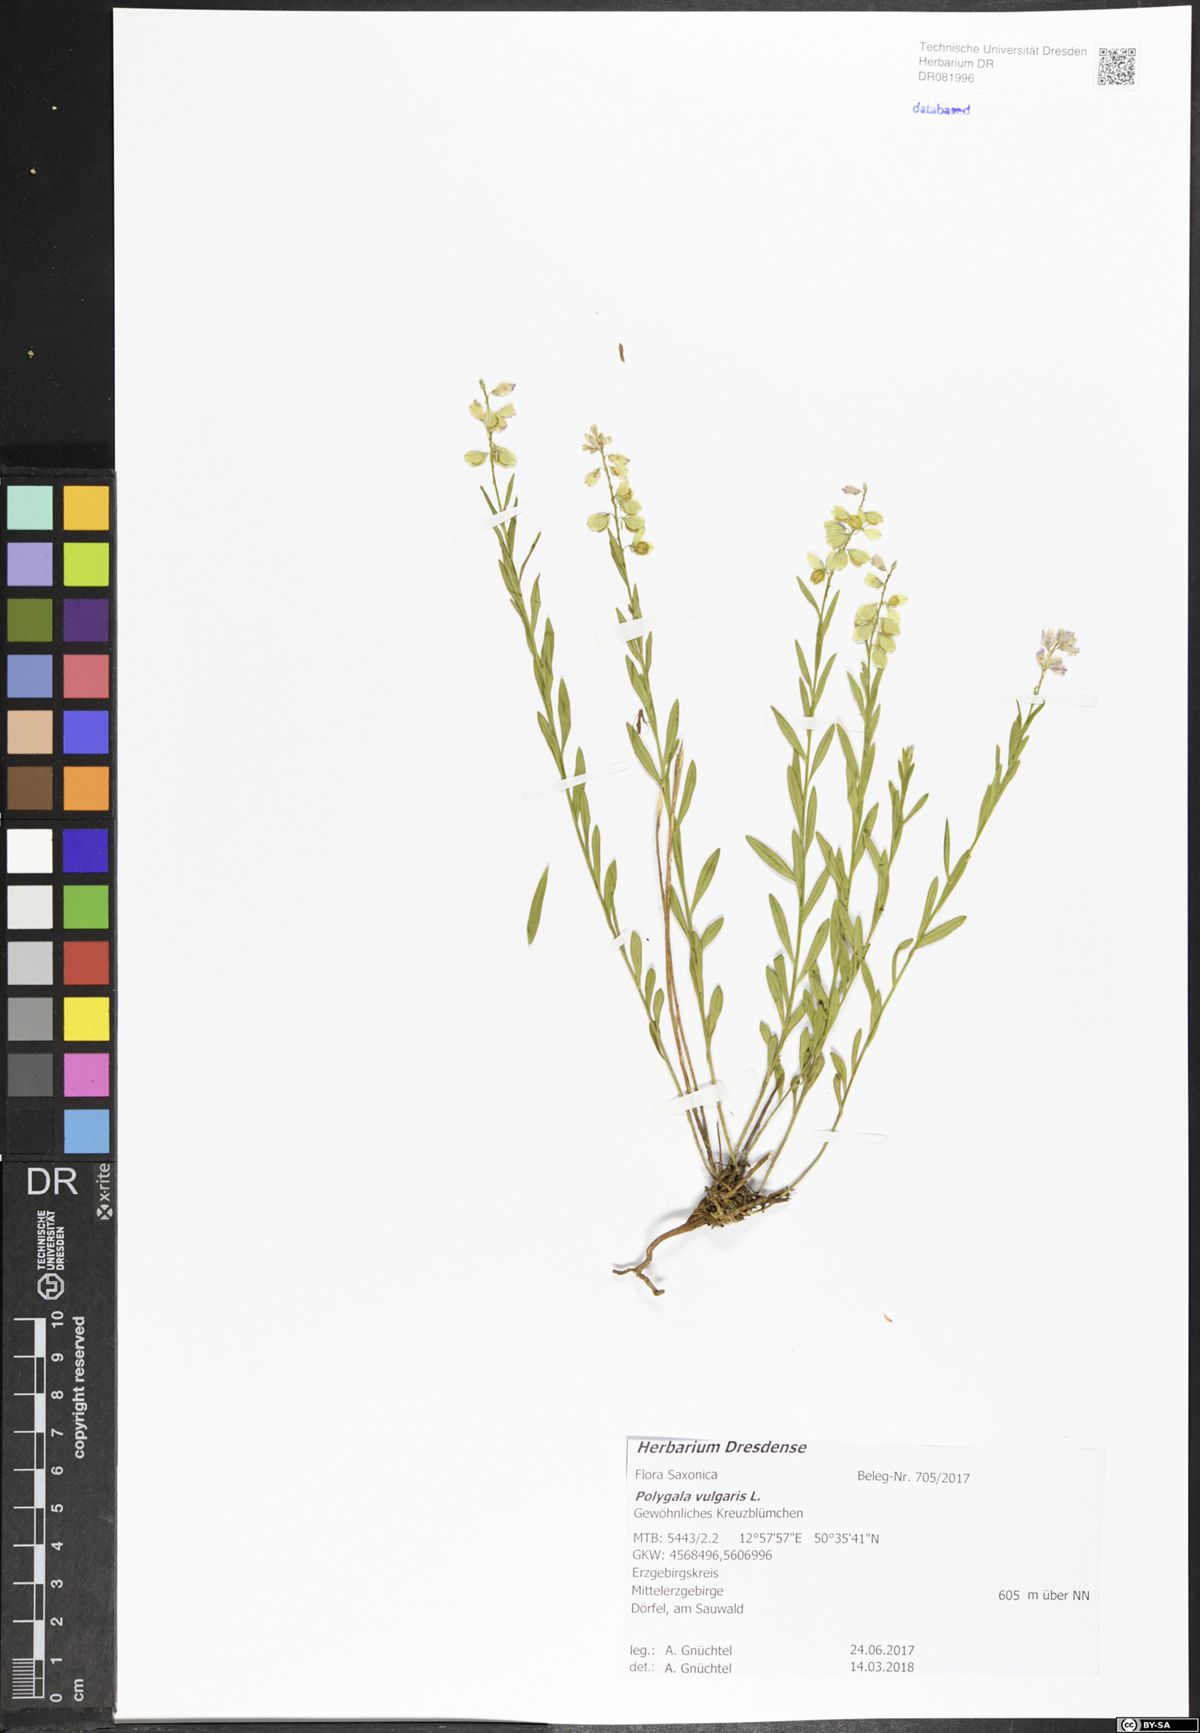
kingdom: Plantae
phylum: Tracheophyta
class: Magnoliopsida
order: Fabales
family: Polygalaceae
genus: Polygala
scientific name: Polygala vulgaris
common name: Common milkwort
